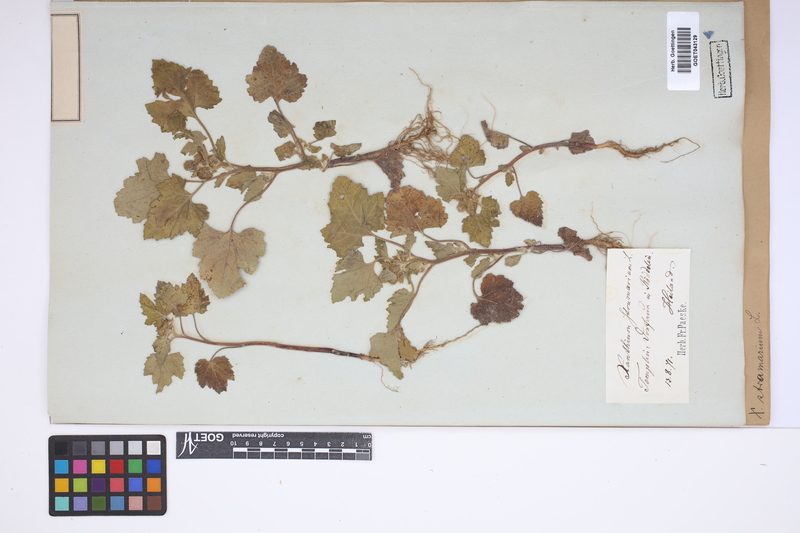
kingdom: Plantae
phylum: Tracheophyta
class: Magnoliopsida
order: Asterales
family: Asteraceae
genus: Xanthium
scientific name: Xanthium strumarium
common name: Rough cocklebur
